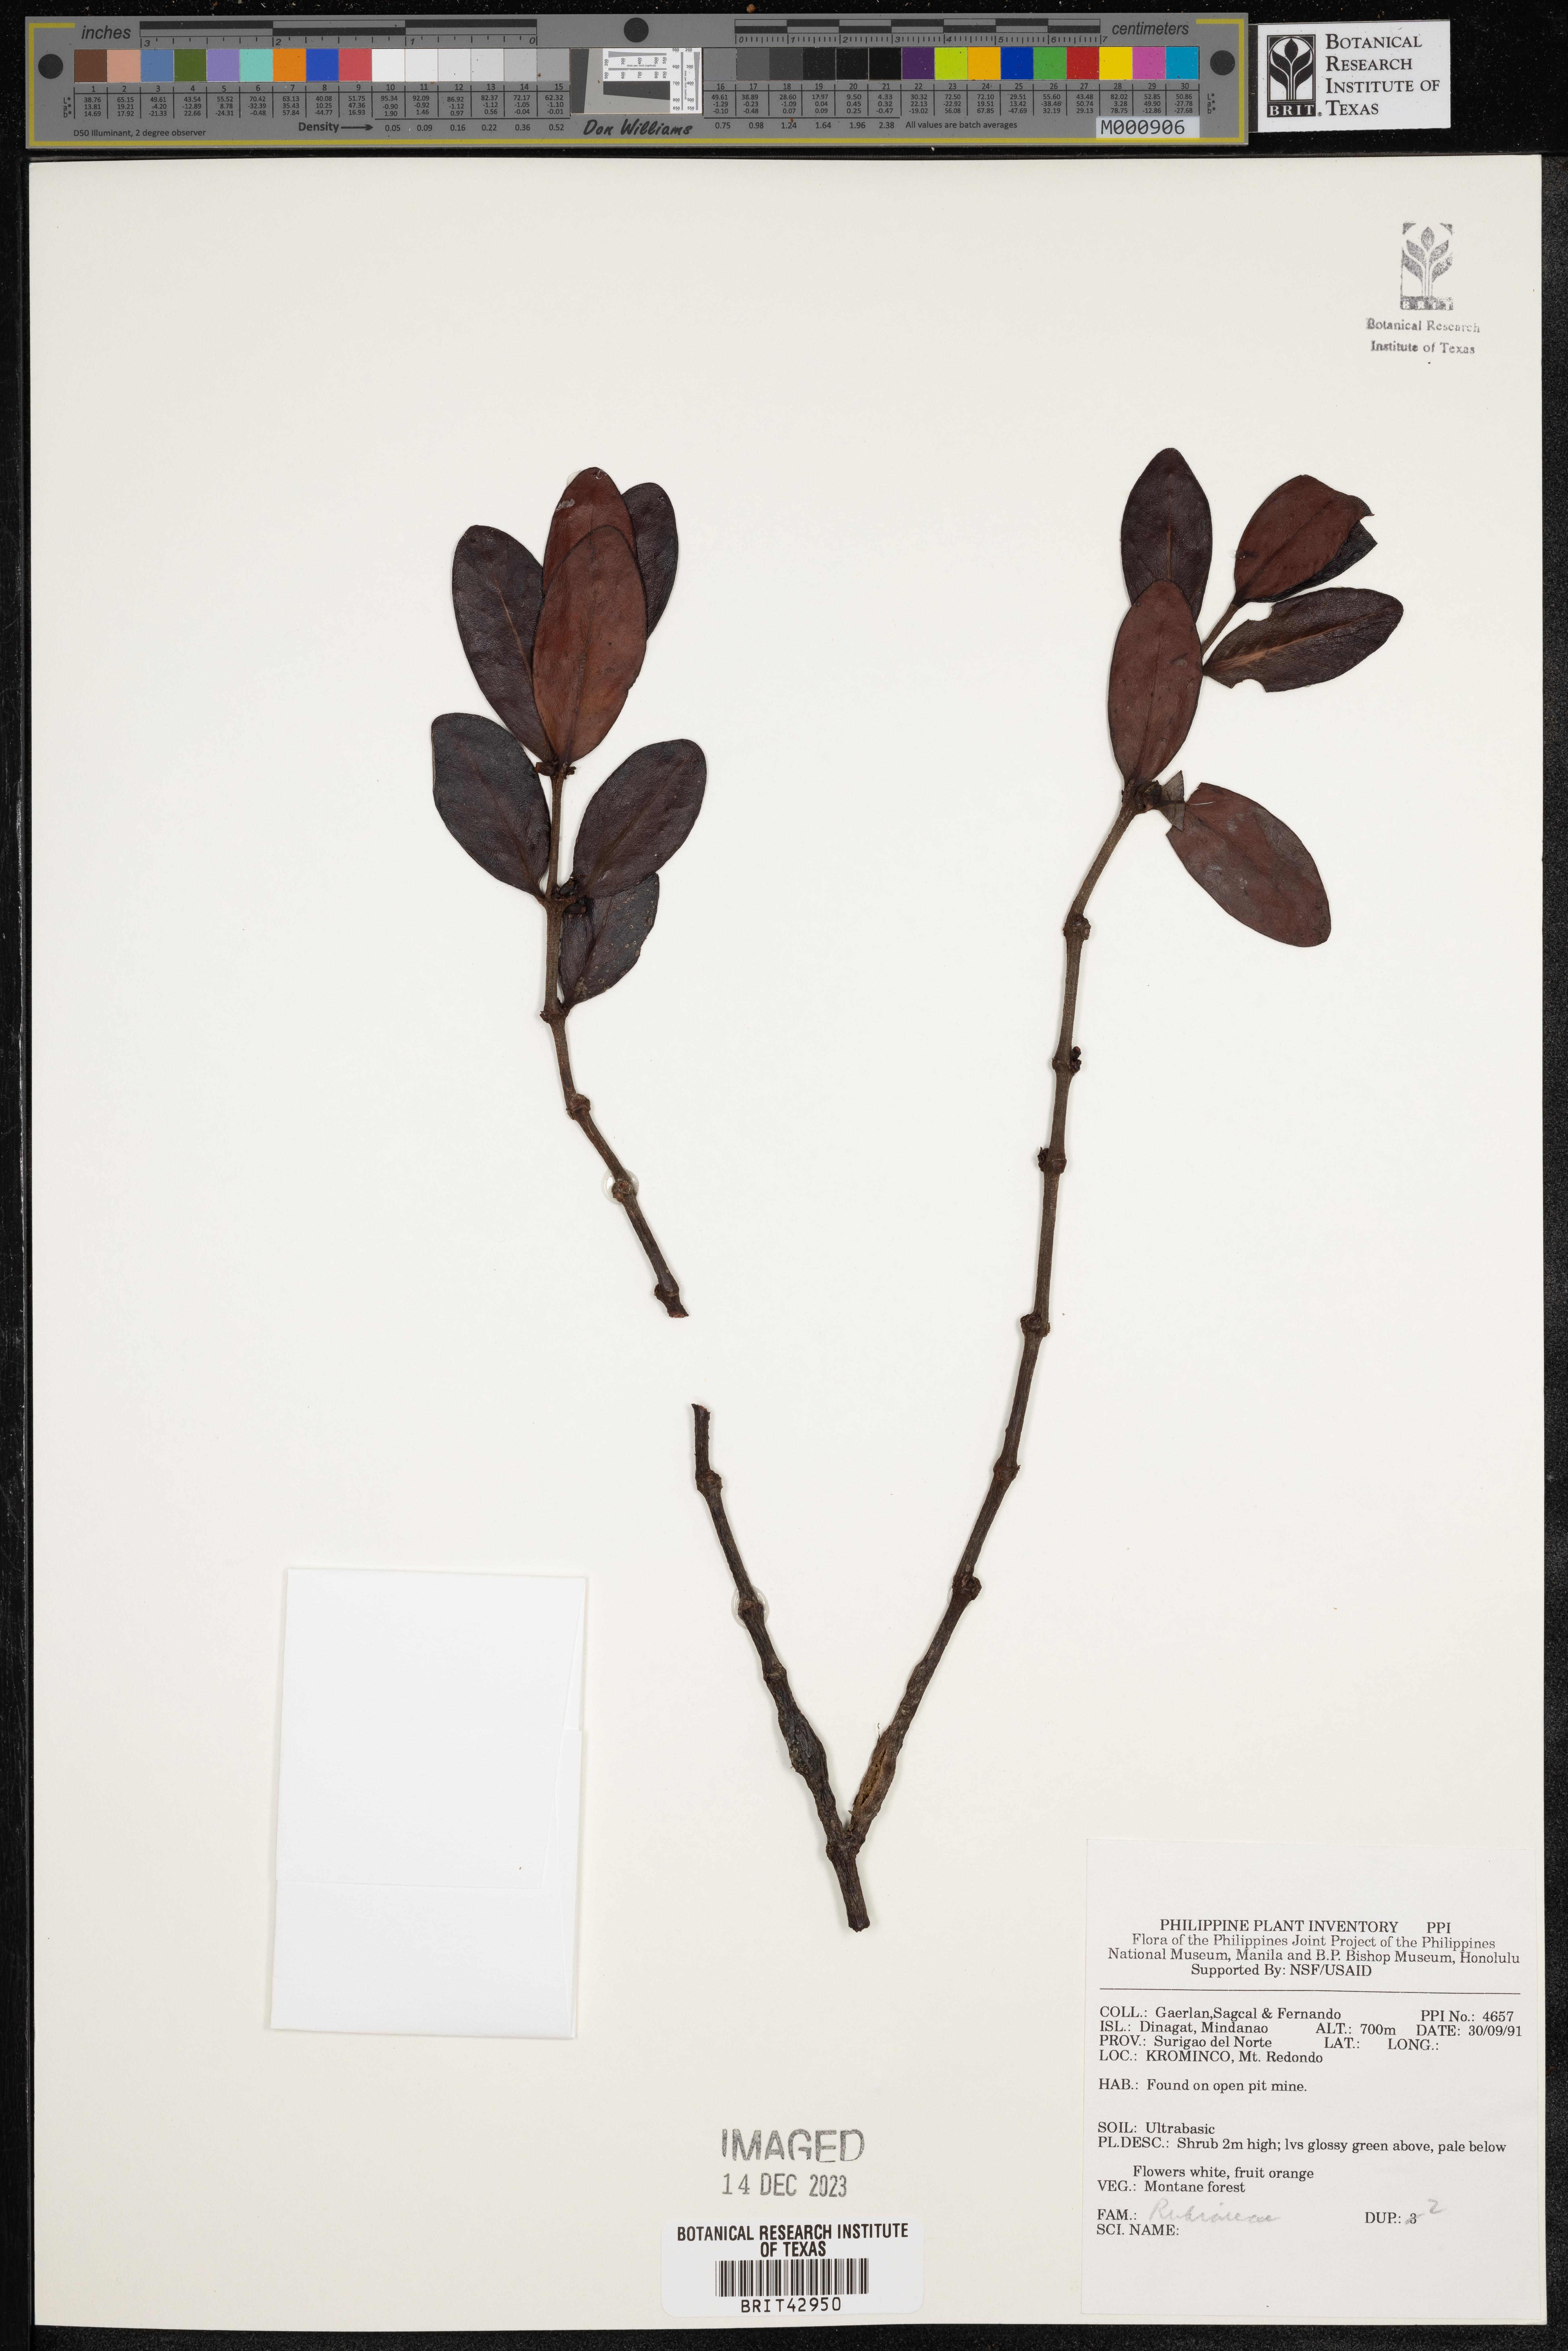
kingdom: Plantae
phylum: Tracheophyta
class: Magnoliopsida
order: Gentianales
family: Rubiaceae
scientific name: Rubiaceae
